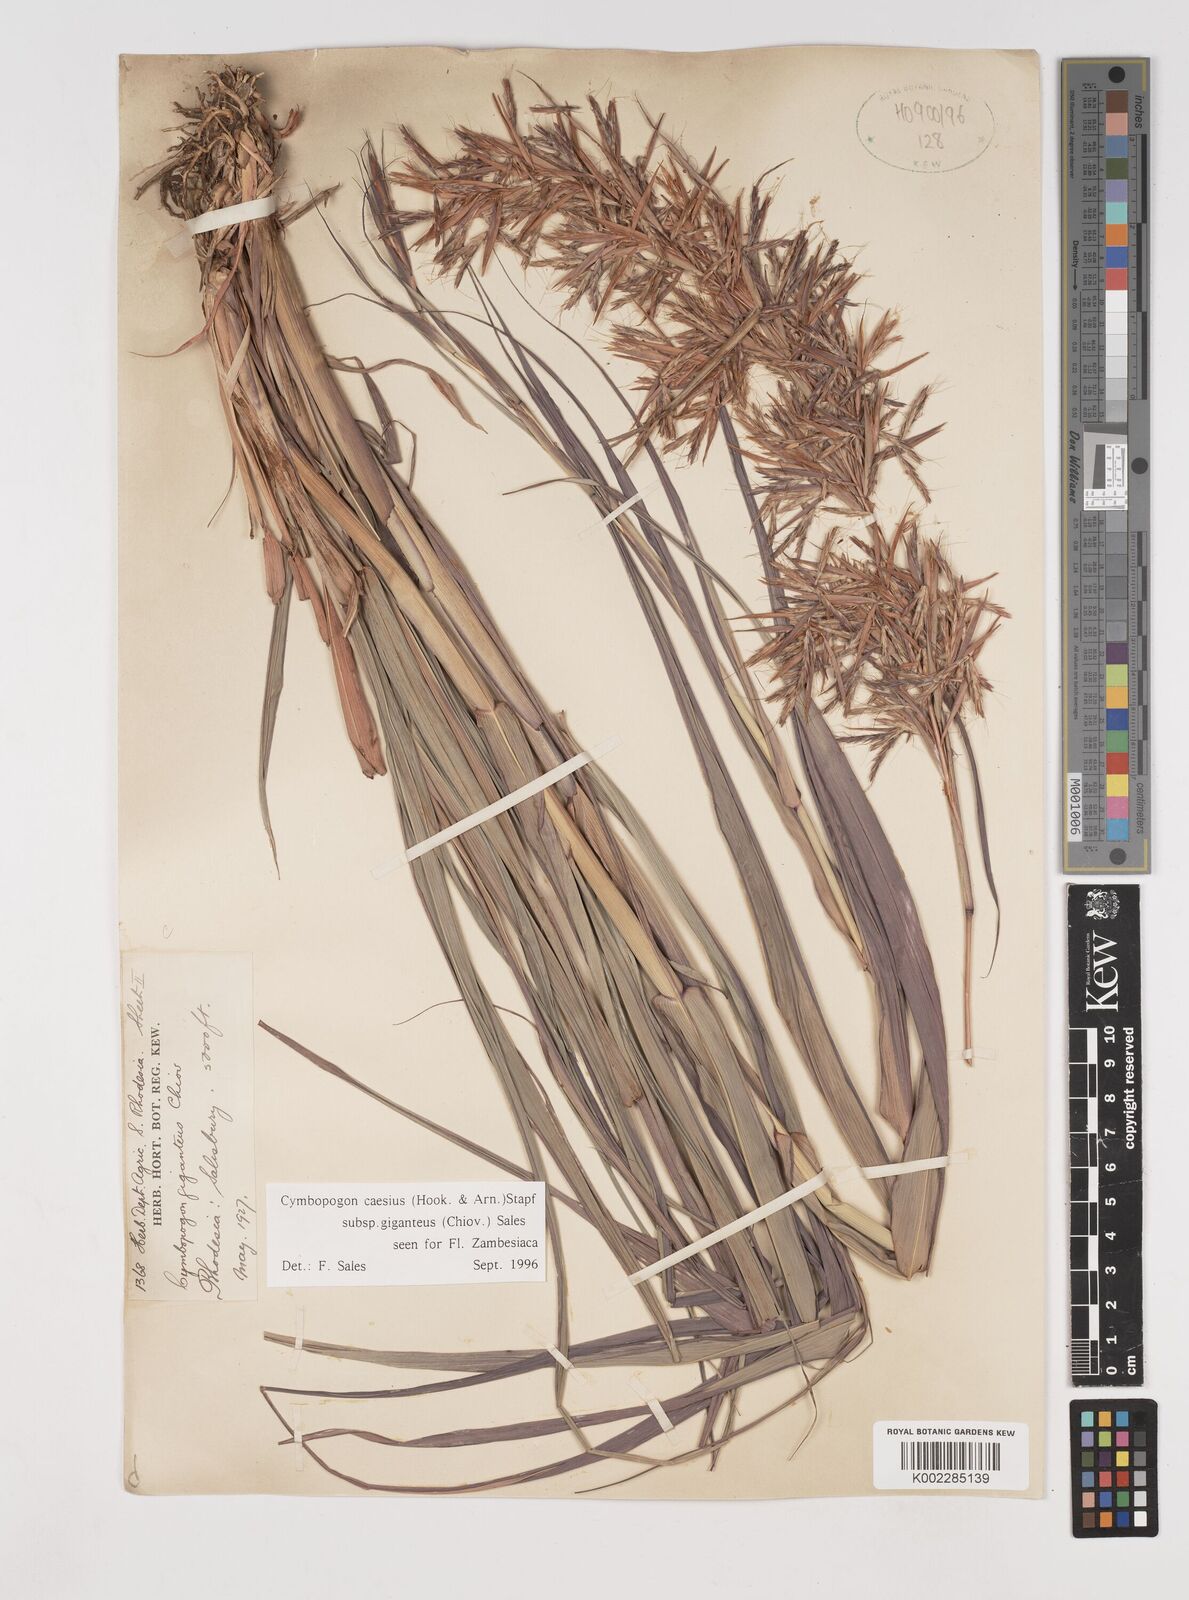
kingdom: Plantae
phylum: Tracheophyta
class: Liliopsida
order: Poales
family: Poaceae
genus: Cymbopogon
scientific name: Cymbopogon giganteus
